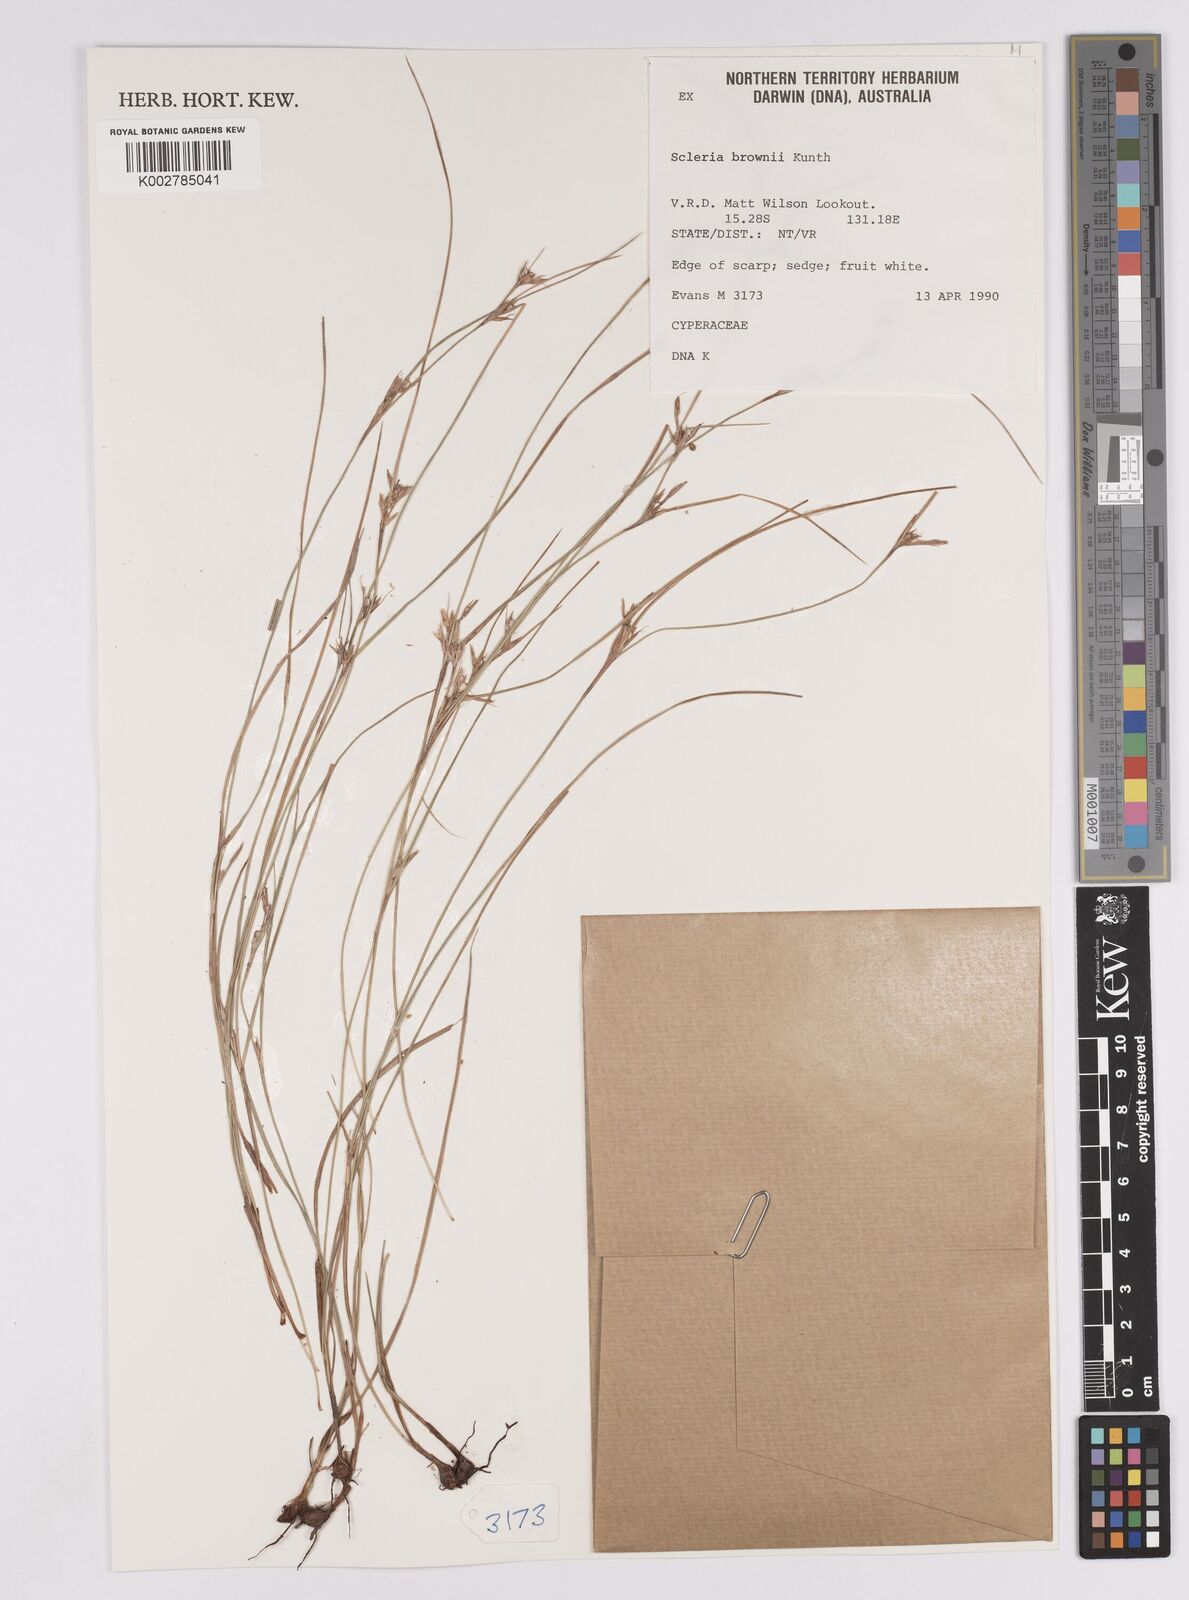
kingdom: Plantae
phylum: Tracheophyta
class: Liliopsida
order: Poales
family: Cyperaceae
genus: Scleria
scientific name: Scleria brownii
